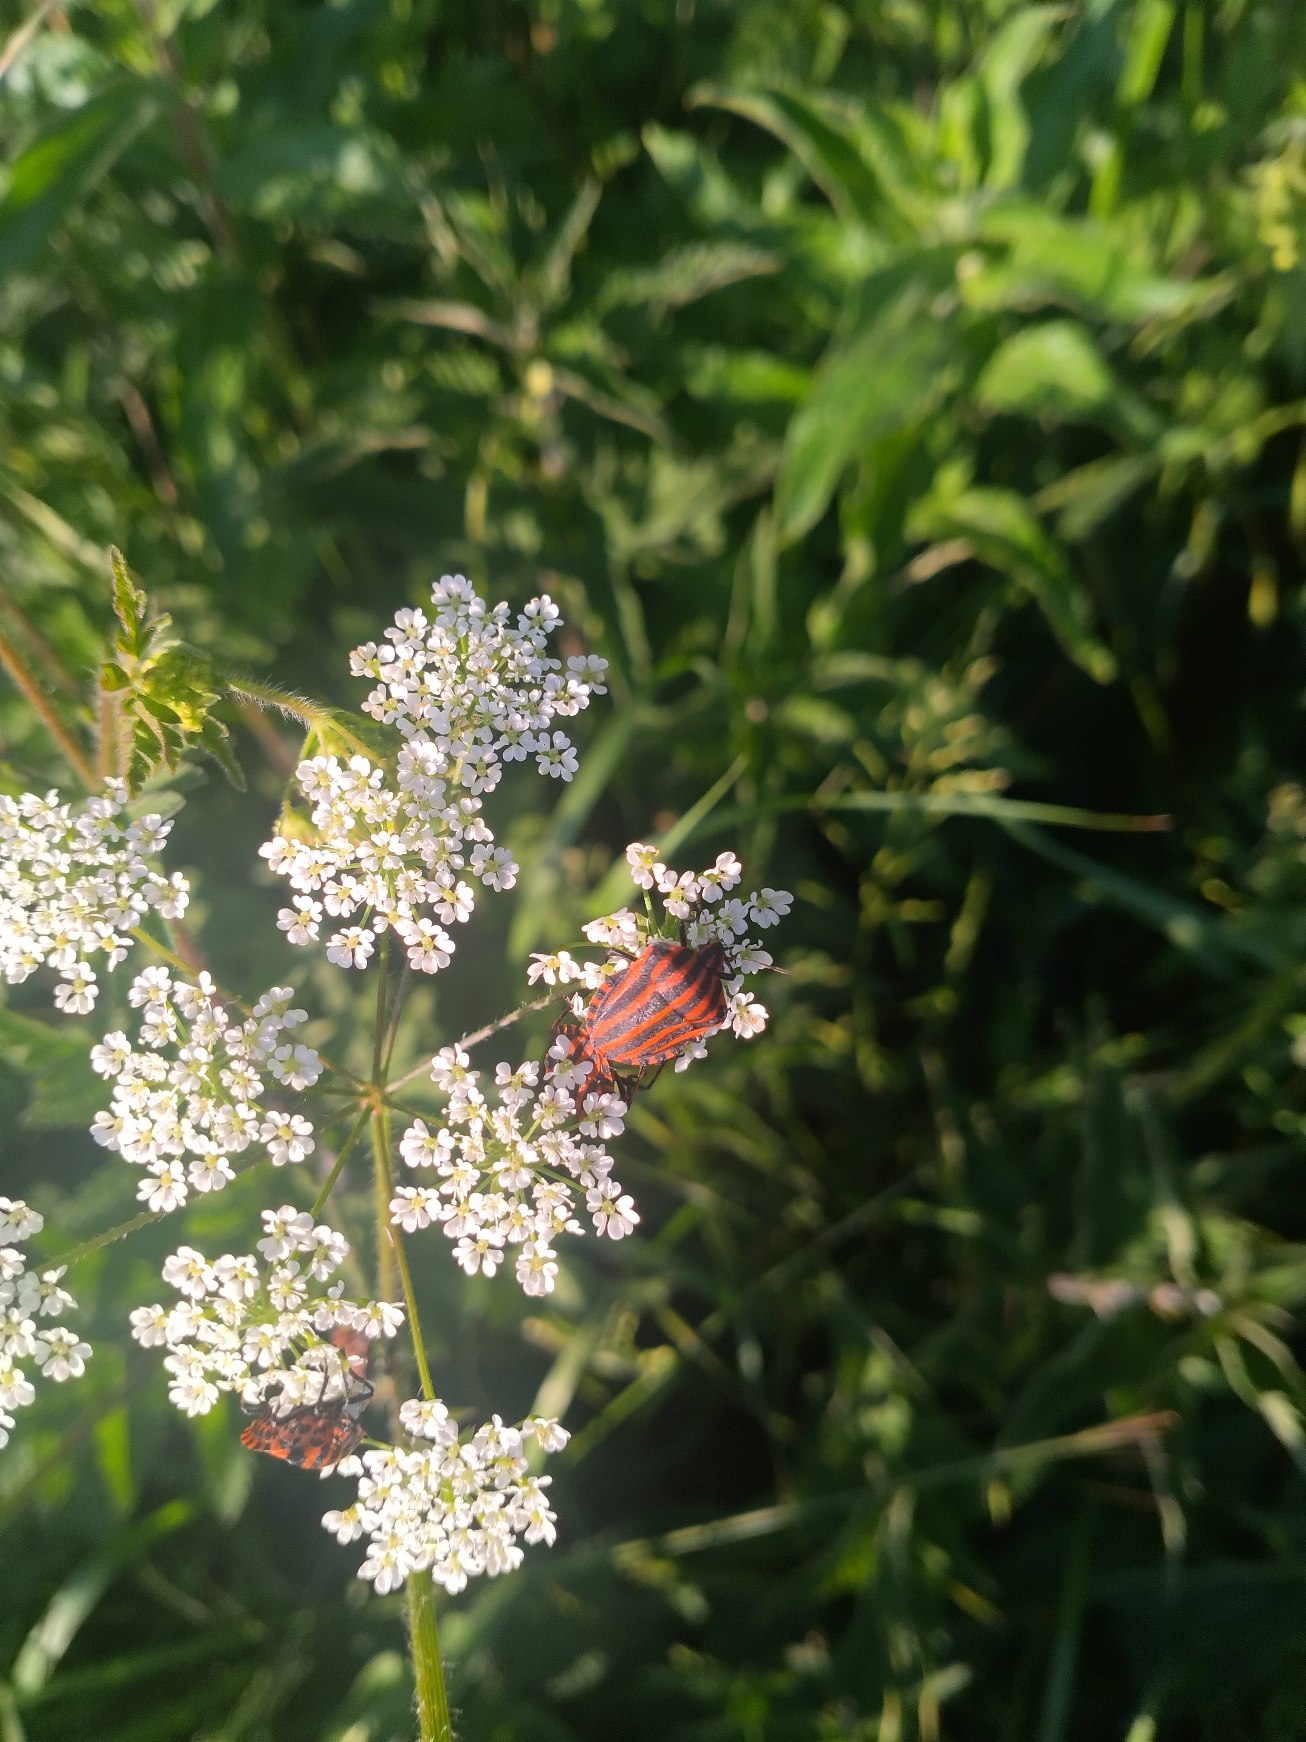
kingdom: Animalia
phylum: Arthropoda
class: Insecta
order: Hemiptera
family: Pentatomidae
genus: Graphosoma
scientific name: Graphosoma italicum
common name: Stribetæge
